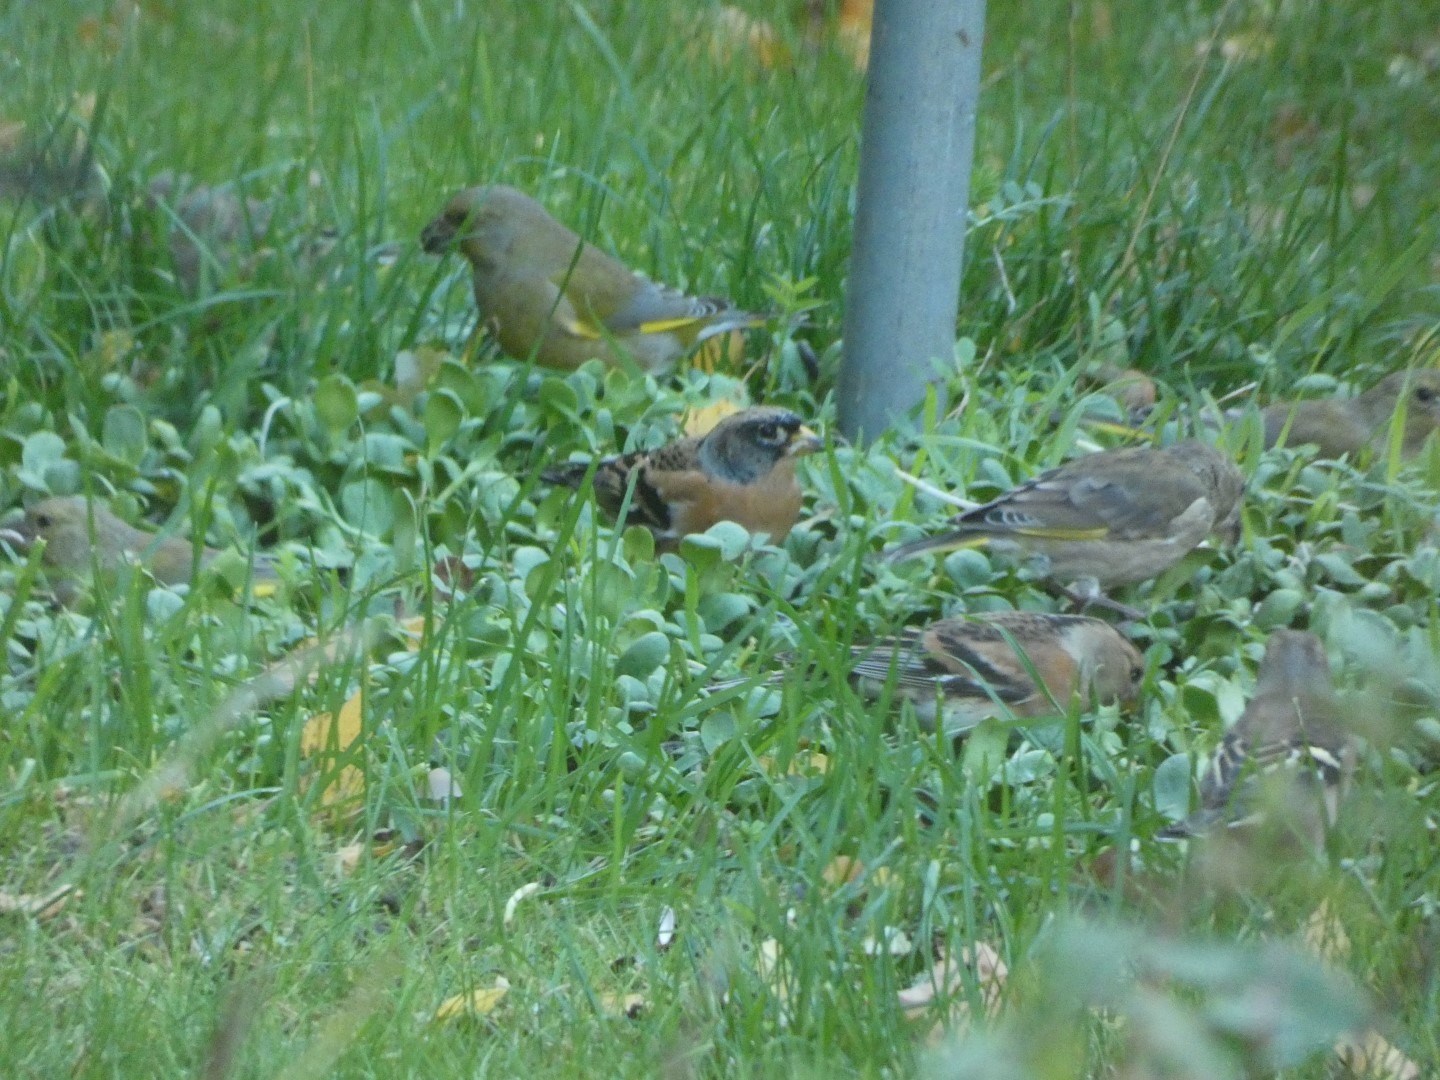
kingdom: Animalia
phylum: Chordata
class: Aves
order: Passeriformes
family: Fringillidae
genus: Fringilla
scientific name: Fringilla montifringilla
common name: Kvækerfinke
